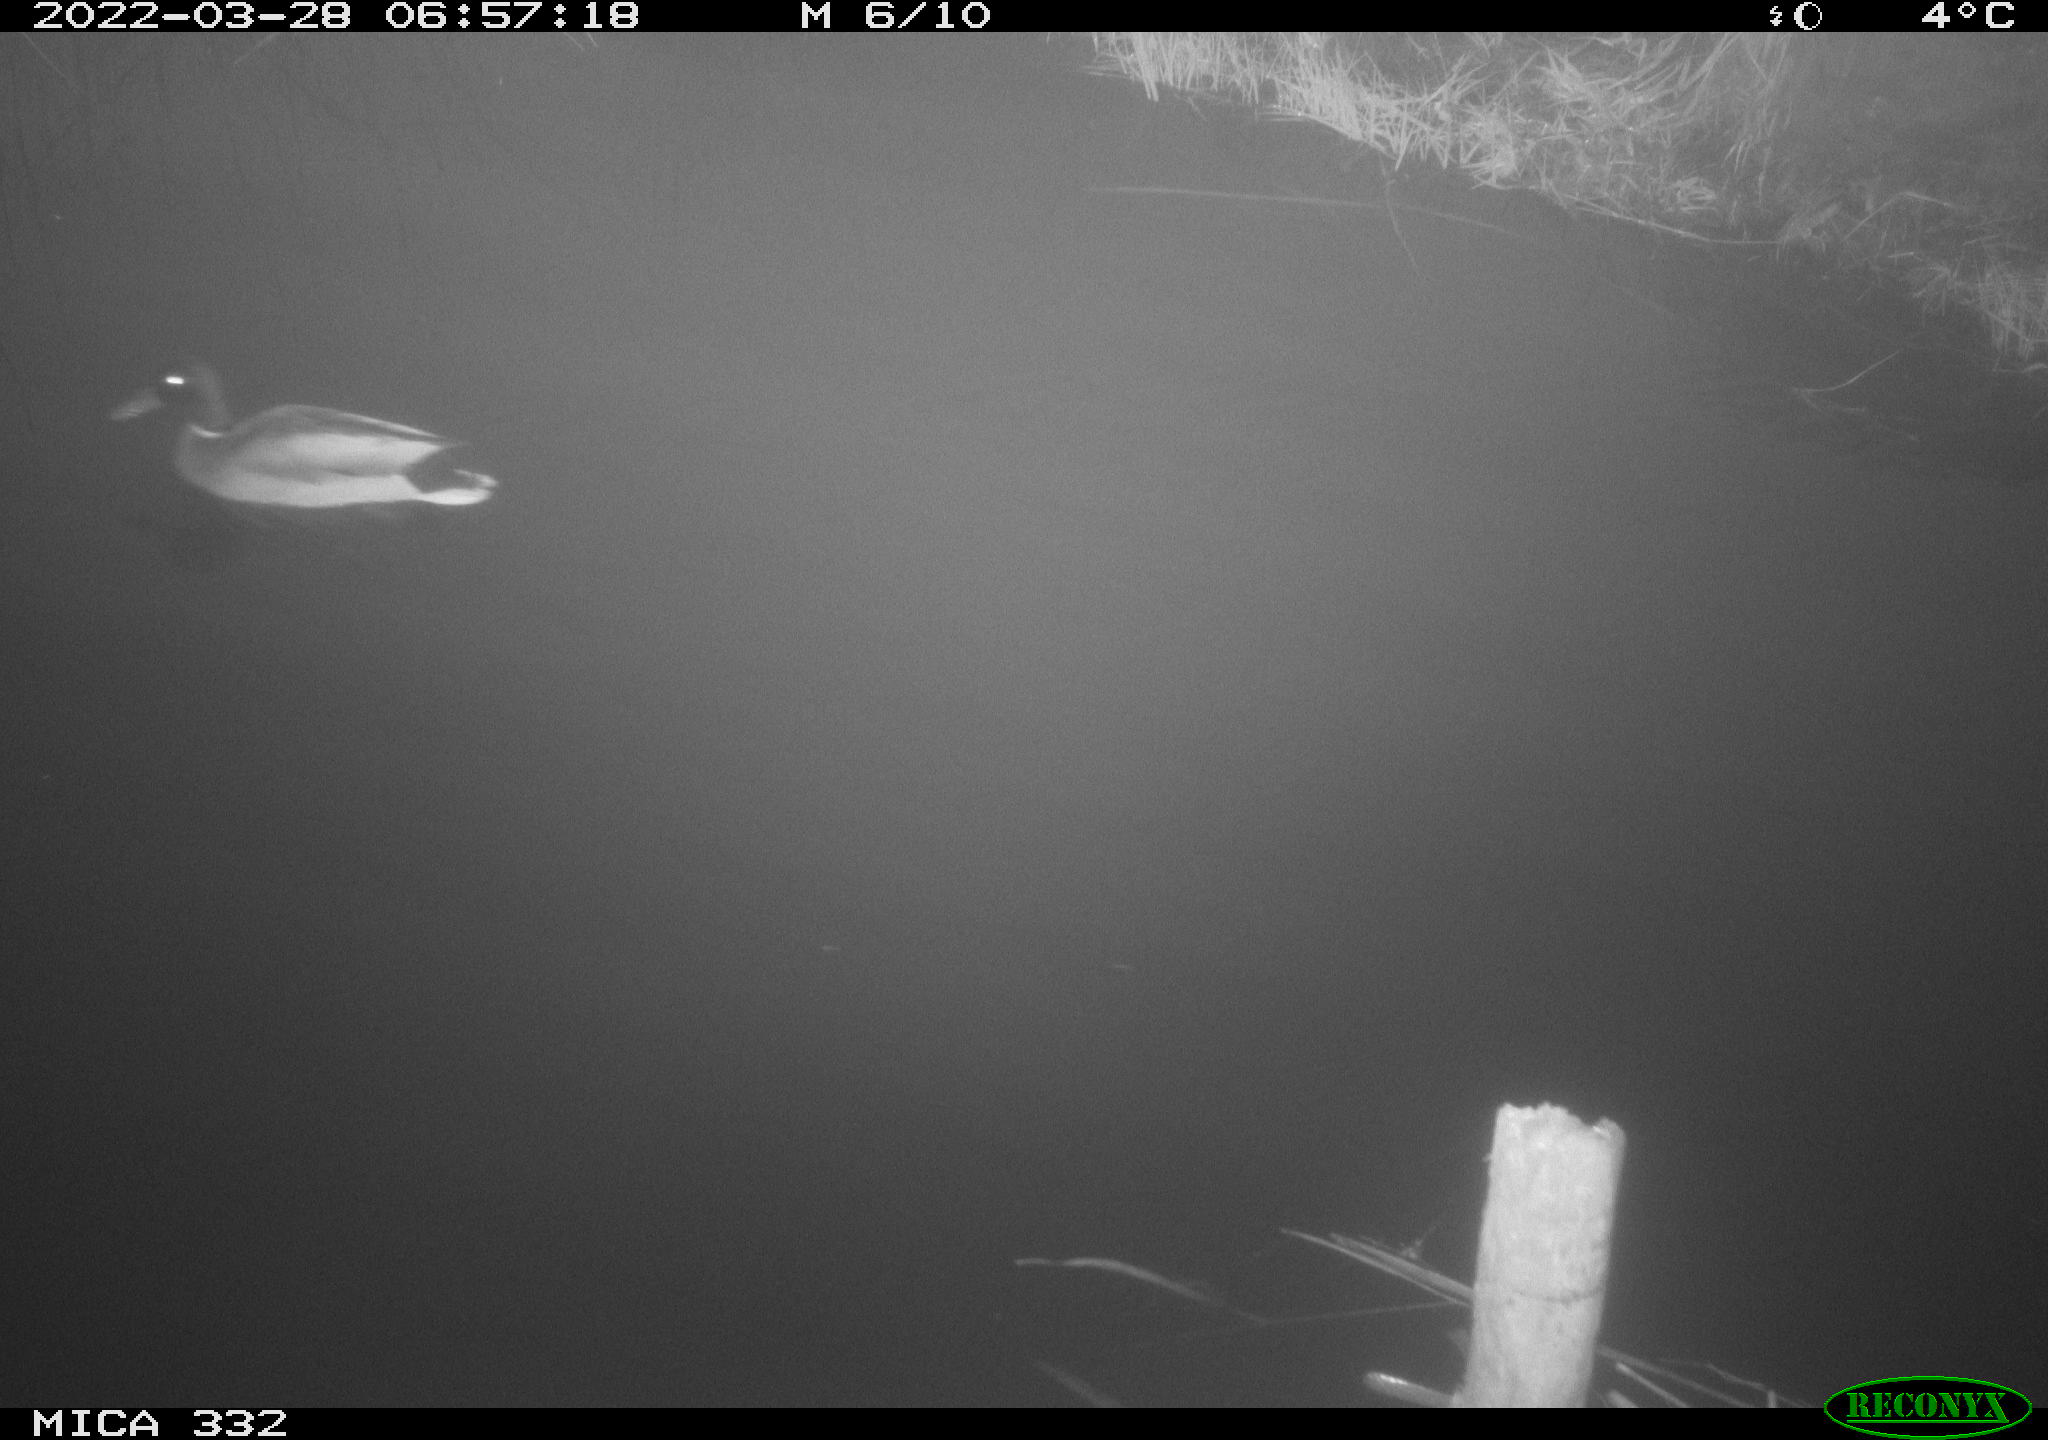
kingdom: Animalia
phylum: Chordata
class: Aves
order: Anseriformes
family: Anatidae
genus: Anas
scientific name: Anas platyrhynchos
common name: Mallard
